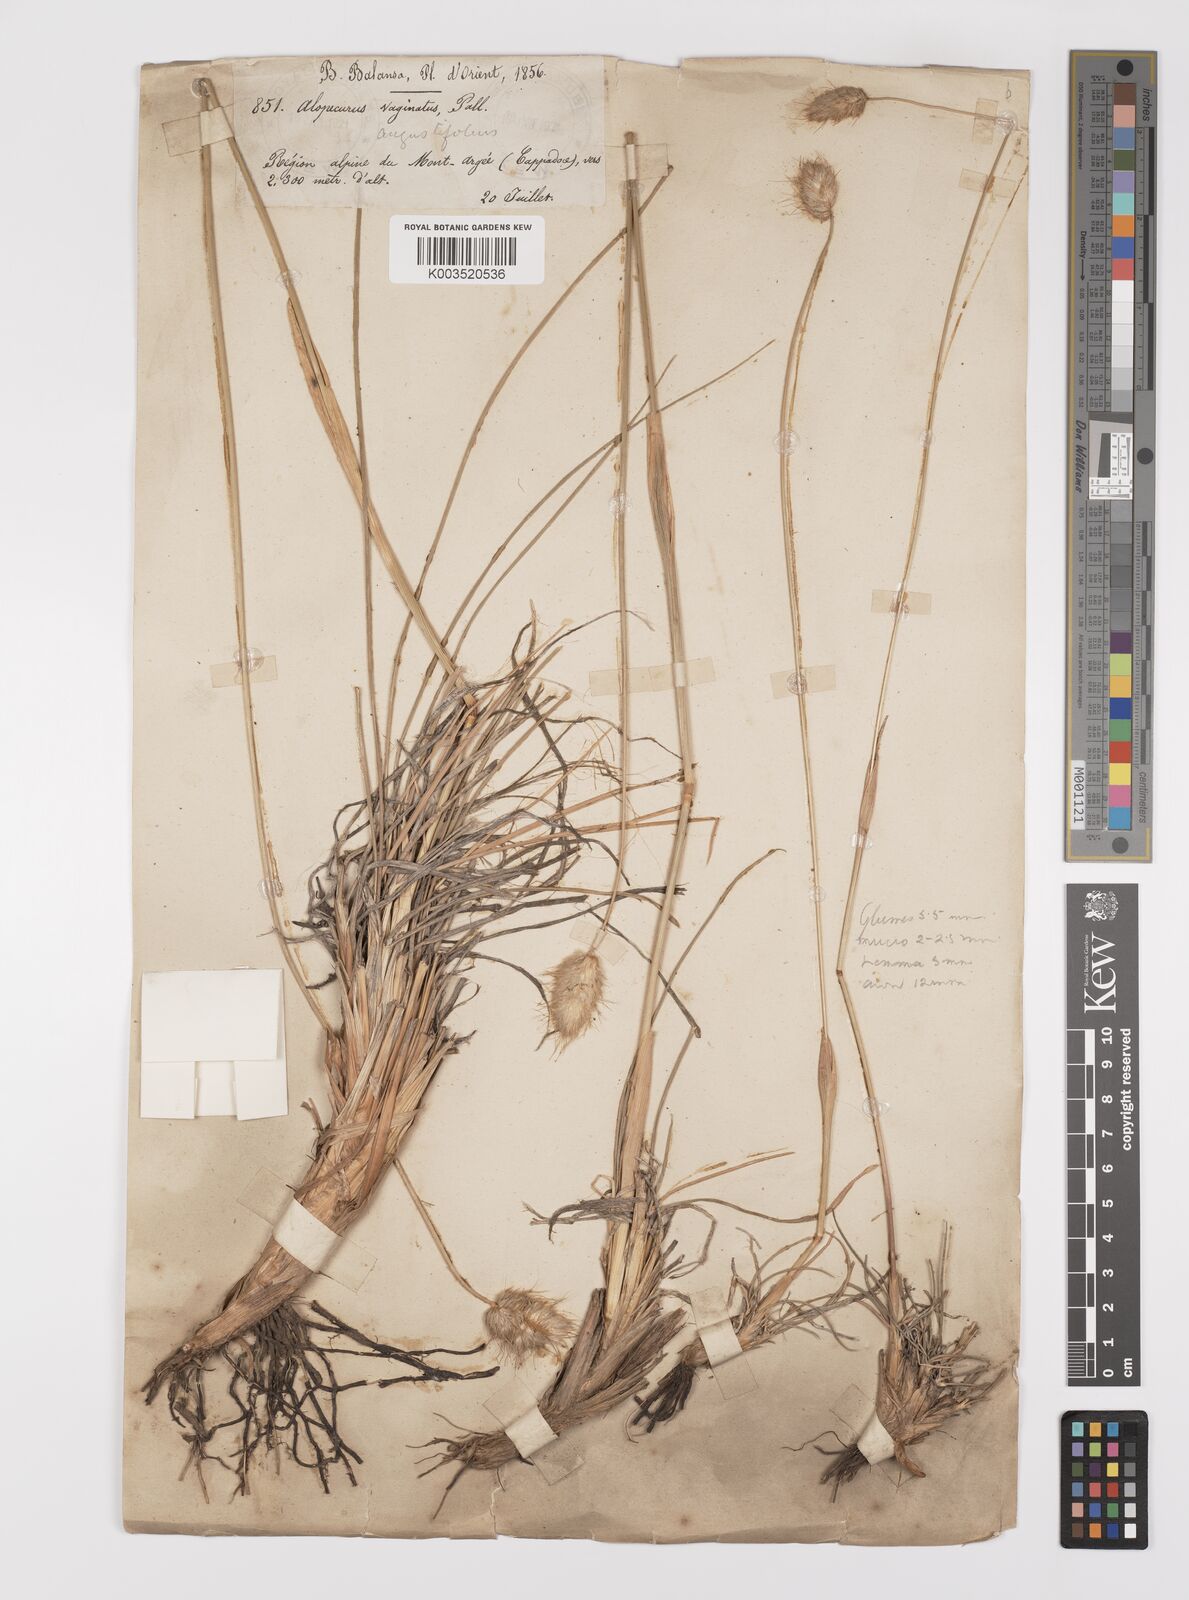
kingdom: Plantae
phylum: Tracheophyta
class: Liliopsida
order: Poales
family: Poaceae
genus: Alopecurus
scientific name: Alopecurus textilis
